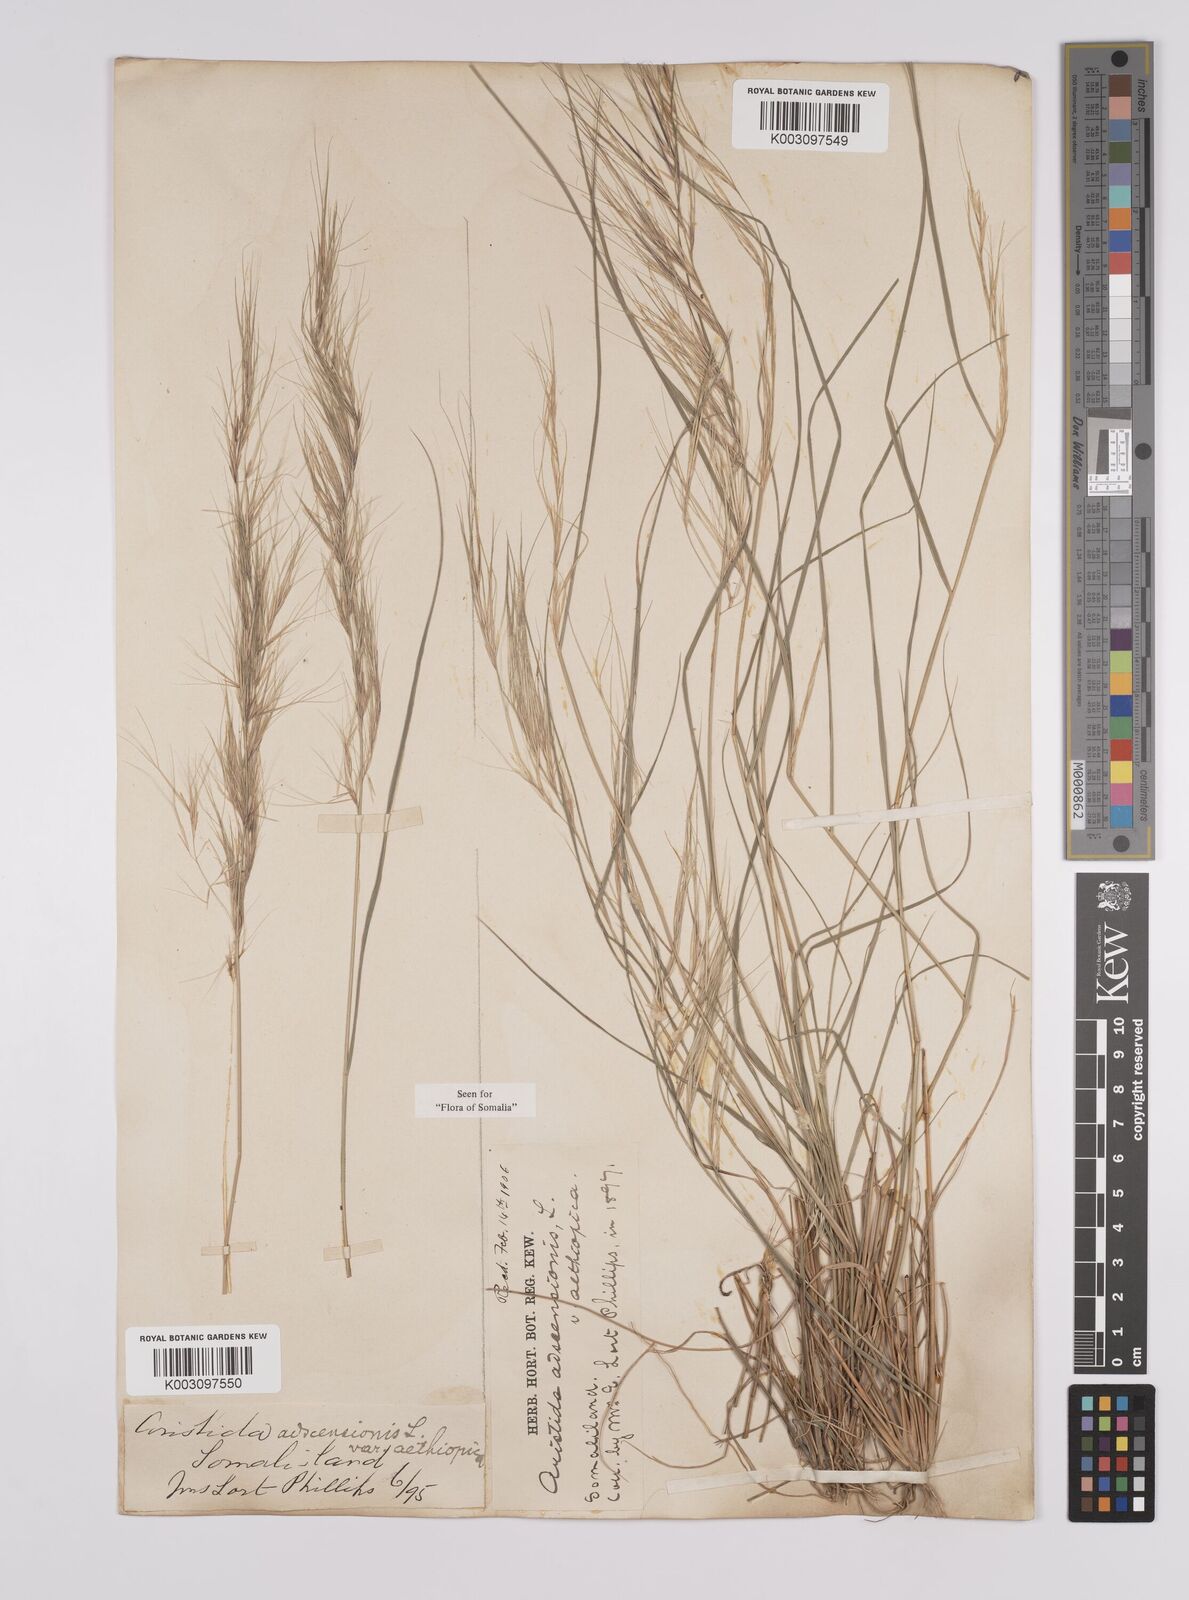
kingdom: Plantae
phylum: Tracheophyta
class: Liliopsida
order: Poales
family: Poaceae
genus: Aristida
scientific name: Aristida adscensionis
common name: Sixweeks threeawn
